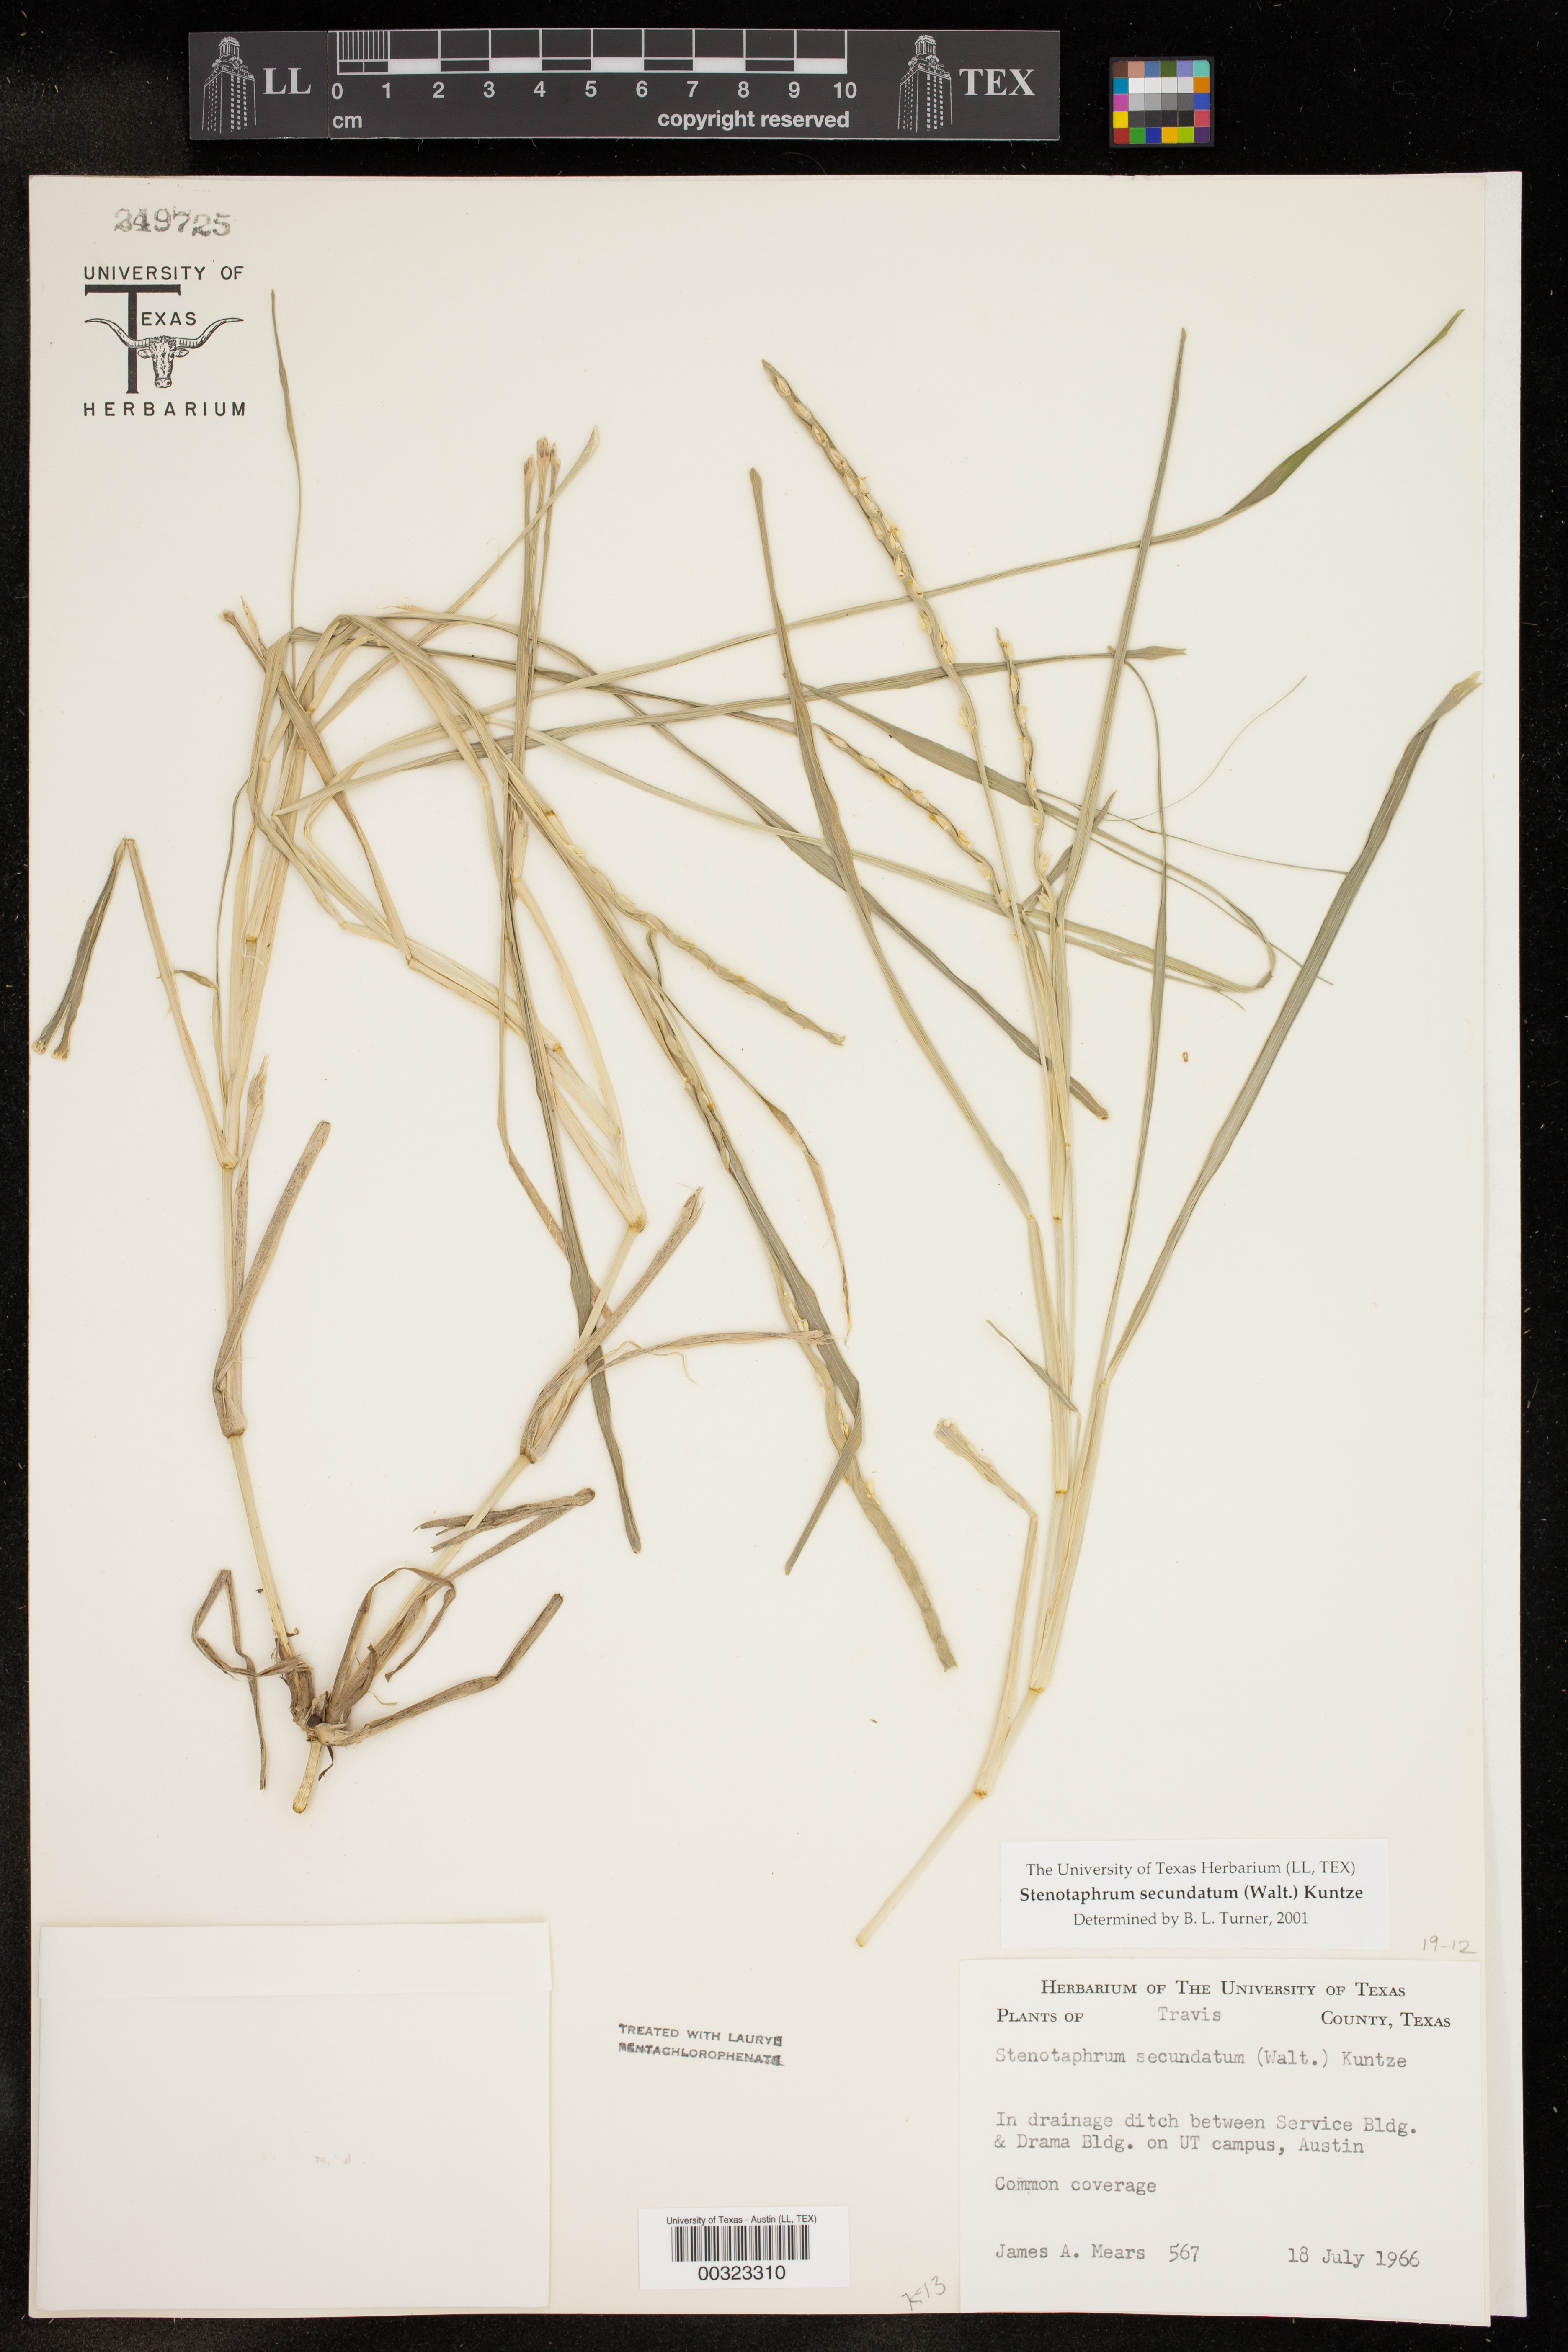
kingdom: Plantae
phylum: Tracheophyta
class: Liliopsida
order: Poales
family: Poaceae
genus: Stenotaphrum
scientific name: Stenotaphrum secundatum
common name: St. augustine grass
